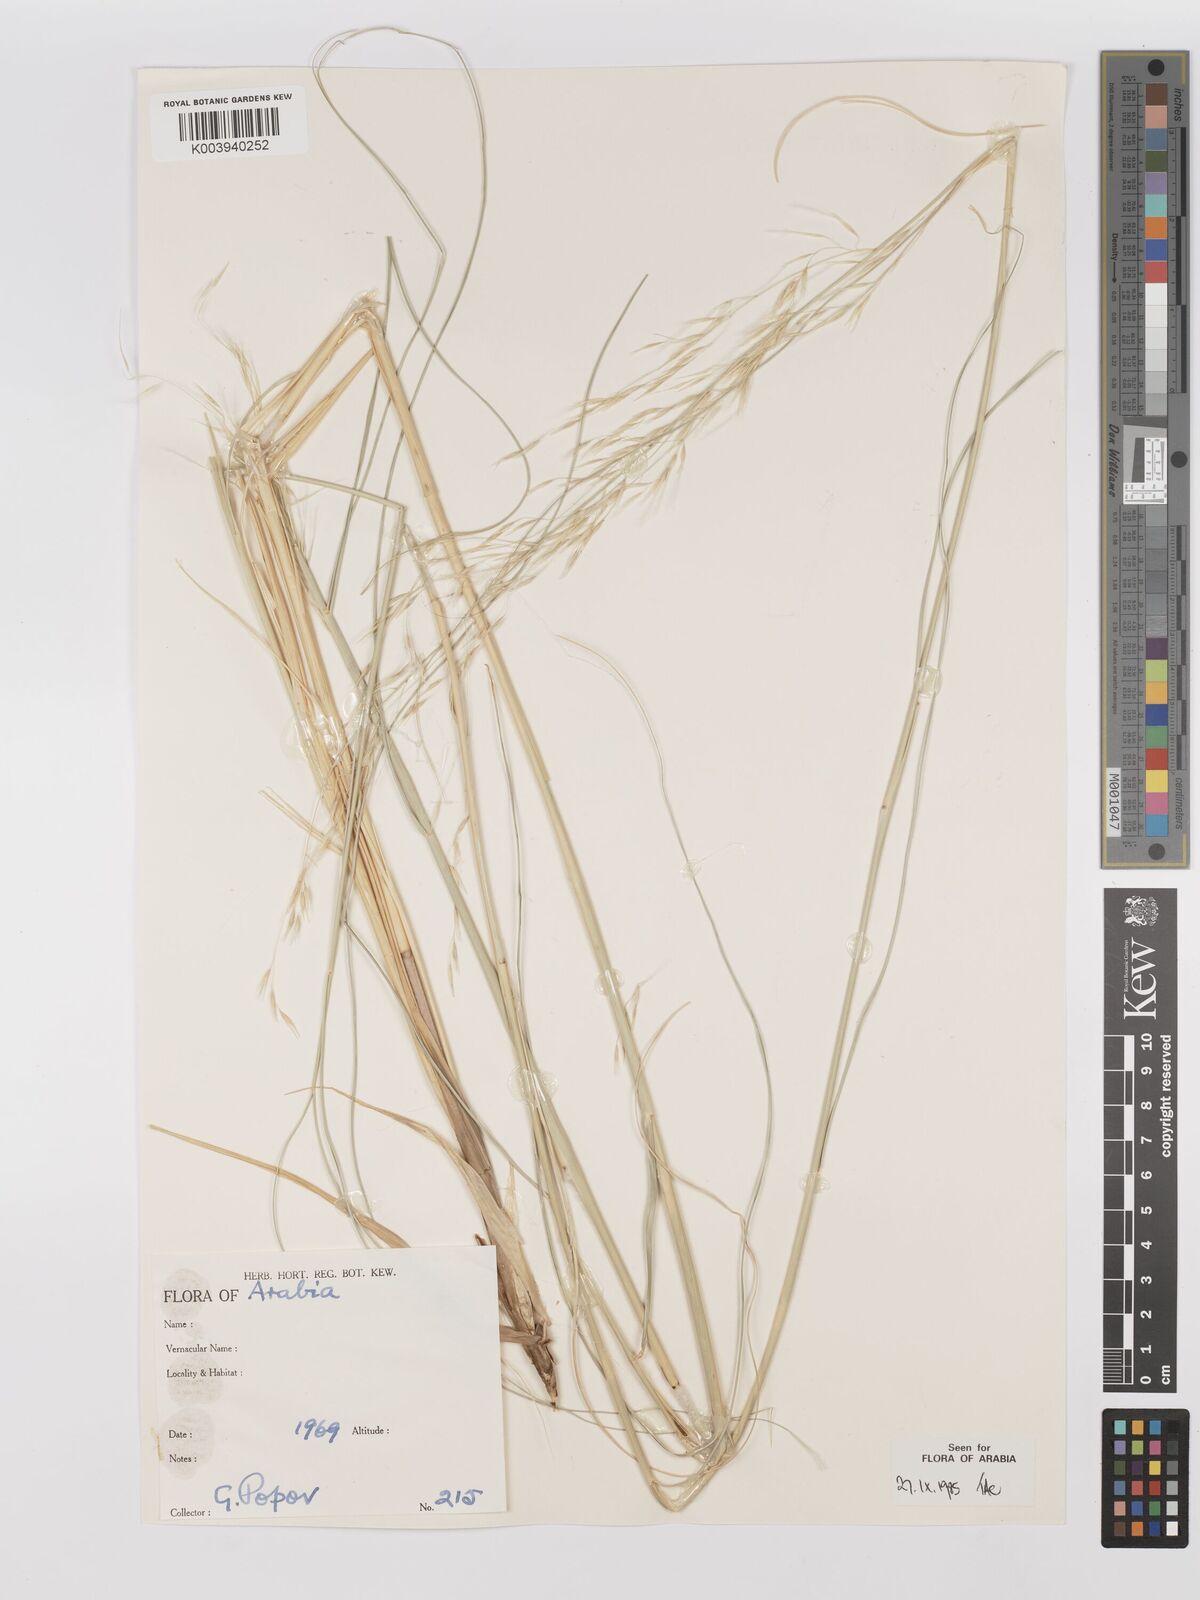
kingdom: Plantae
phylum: Tracheophyta
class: Liliopsida
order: Poales
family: Poaceae
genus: Stipagrostis
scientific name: Stipagrostis drarii
